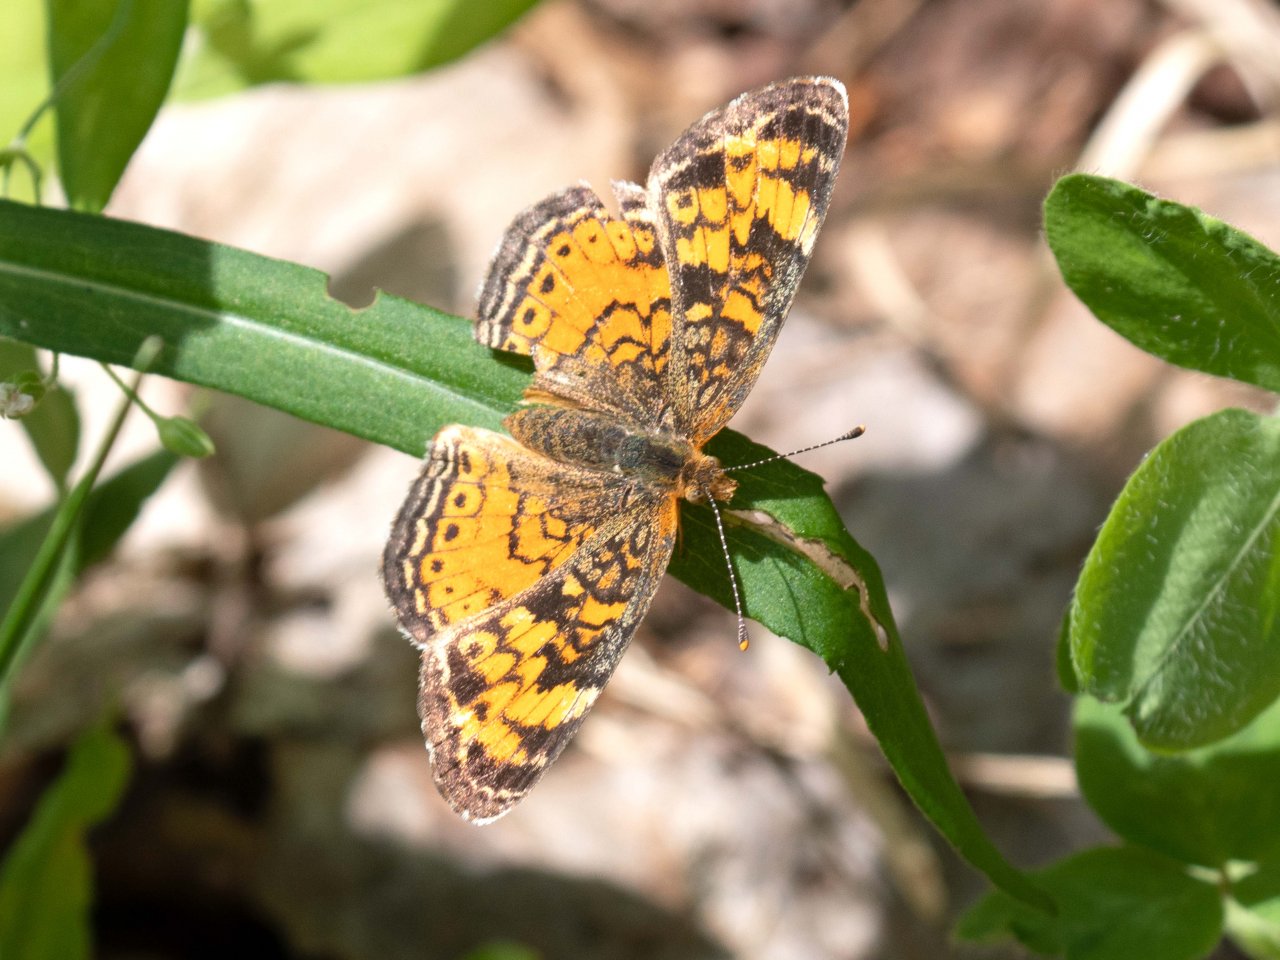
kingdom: Animalia
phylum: Arthropoda
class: Insecta
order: Lepidoptera
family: Nymphalidae
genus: Phyciodes
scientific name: Phyciodes
